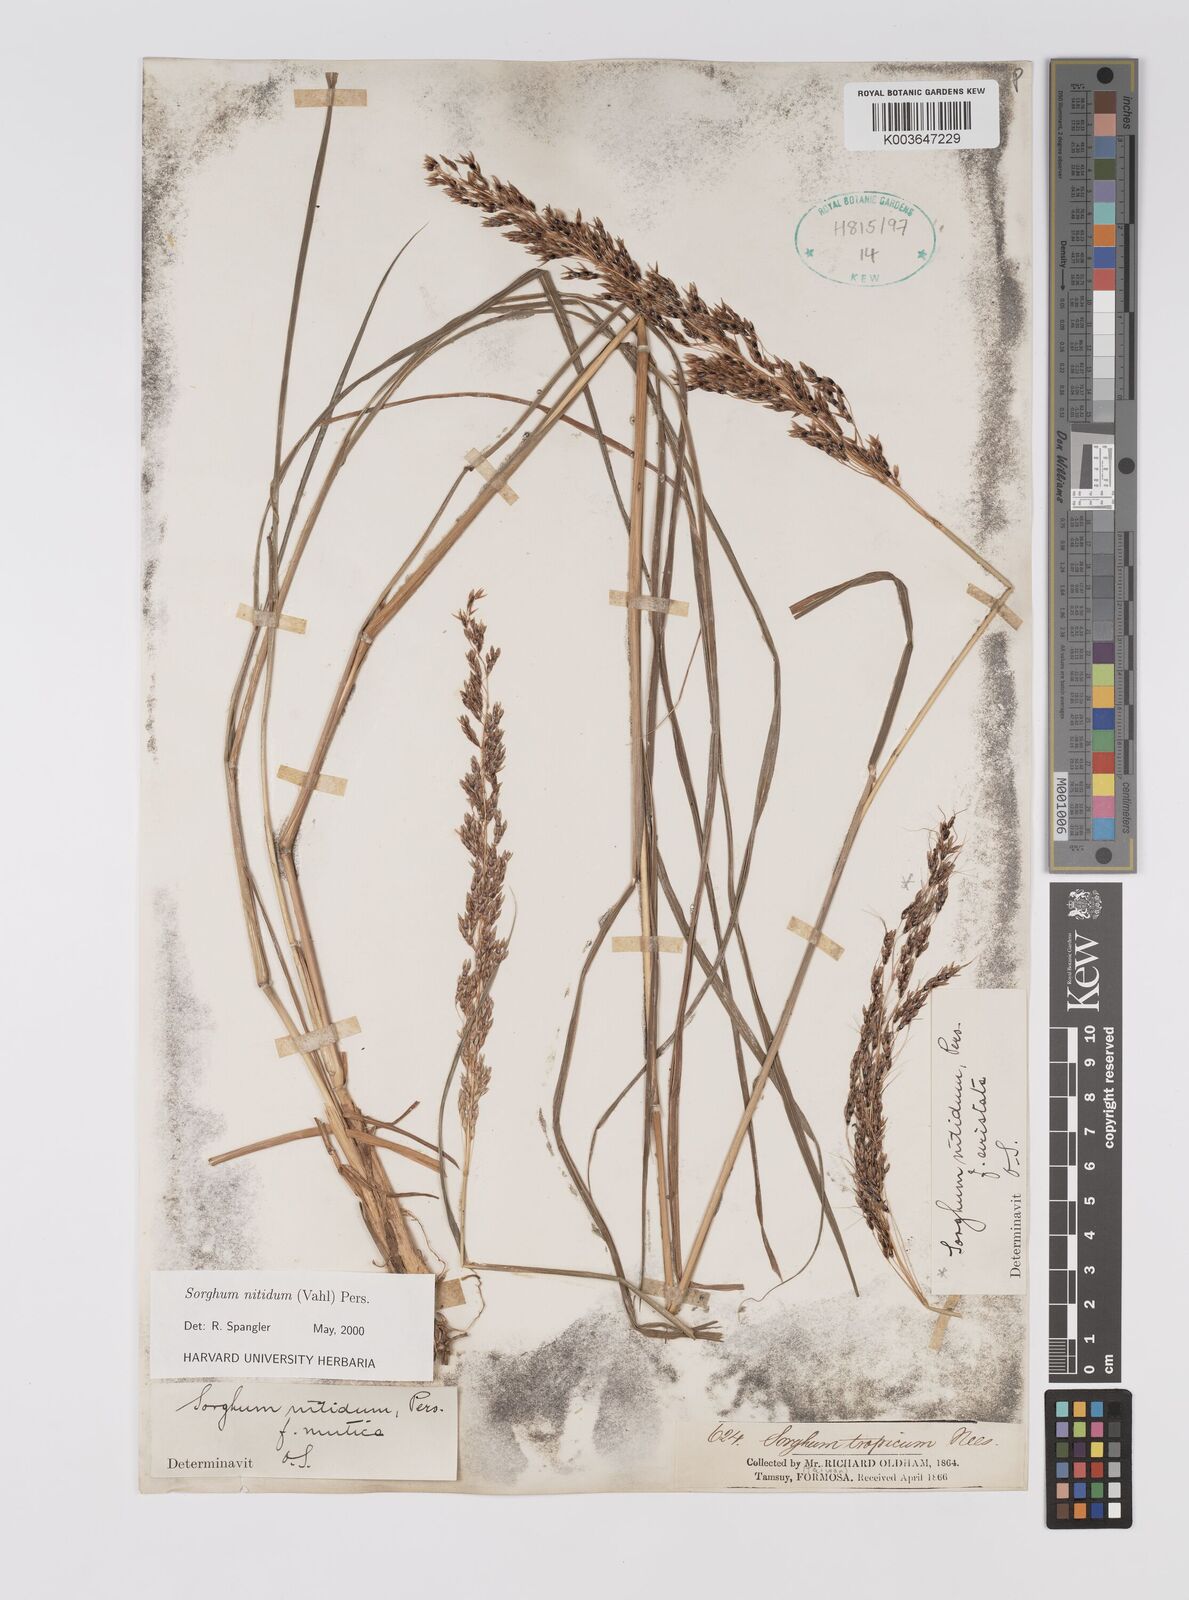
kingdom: Plantae
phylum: Tracheophyta
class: Liliopsida
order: Poales
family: Poaceae
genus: Sorghum
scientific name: Sorghum nitidum
